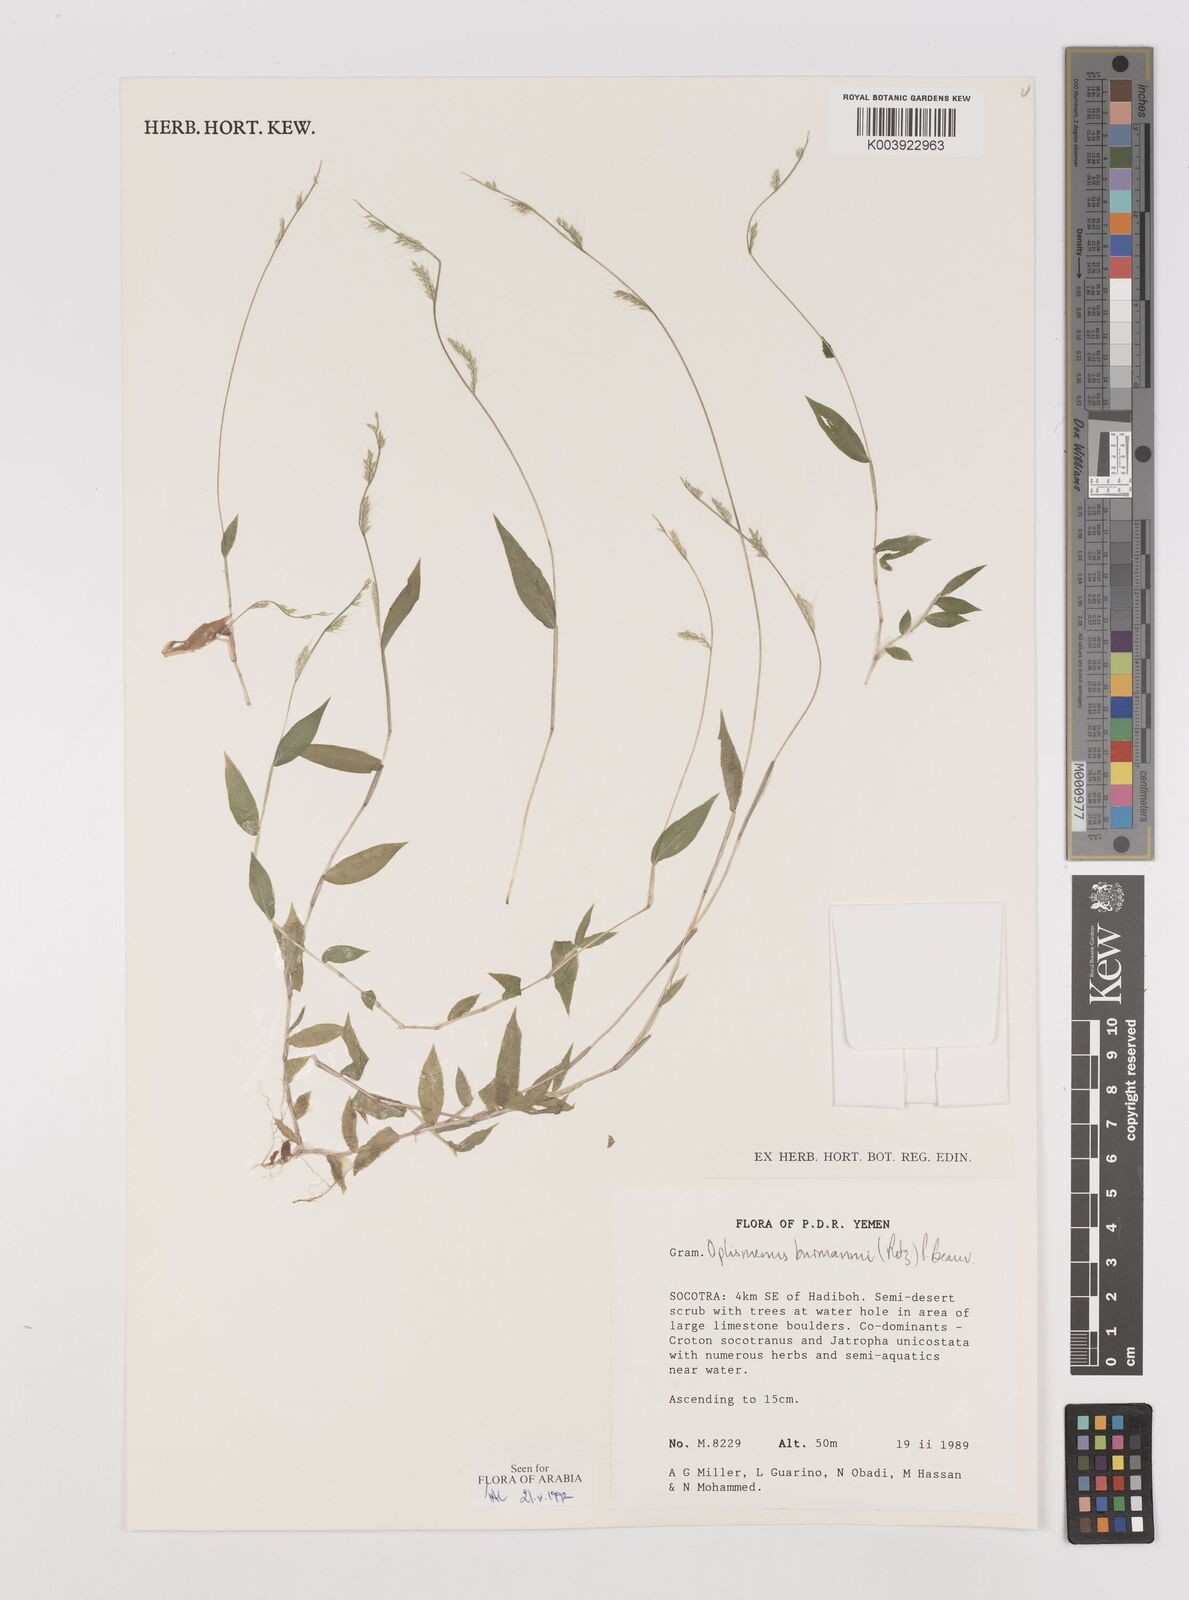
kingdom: Plantae
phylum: Tracheophyta
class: Liliopsida
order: Poales
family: Poaceae
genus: Oplismenus
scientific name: Oplismenus burmanni
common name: Burmann's basketgrass
